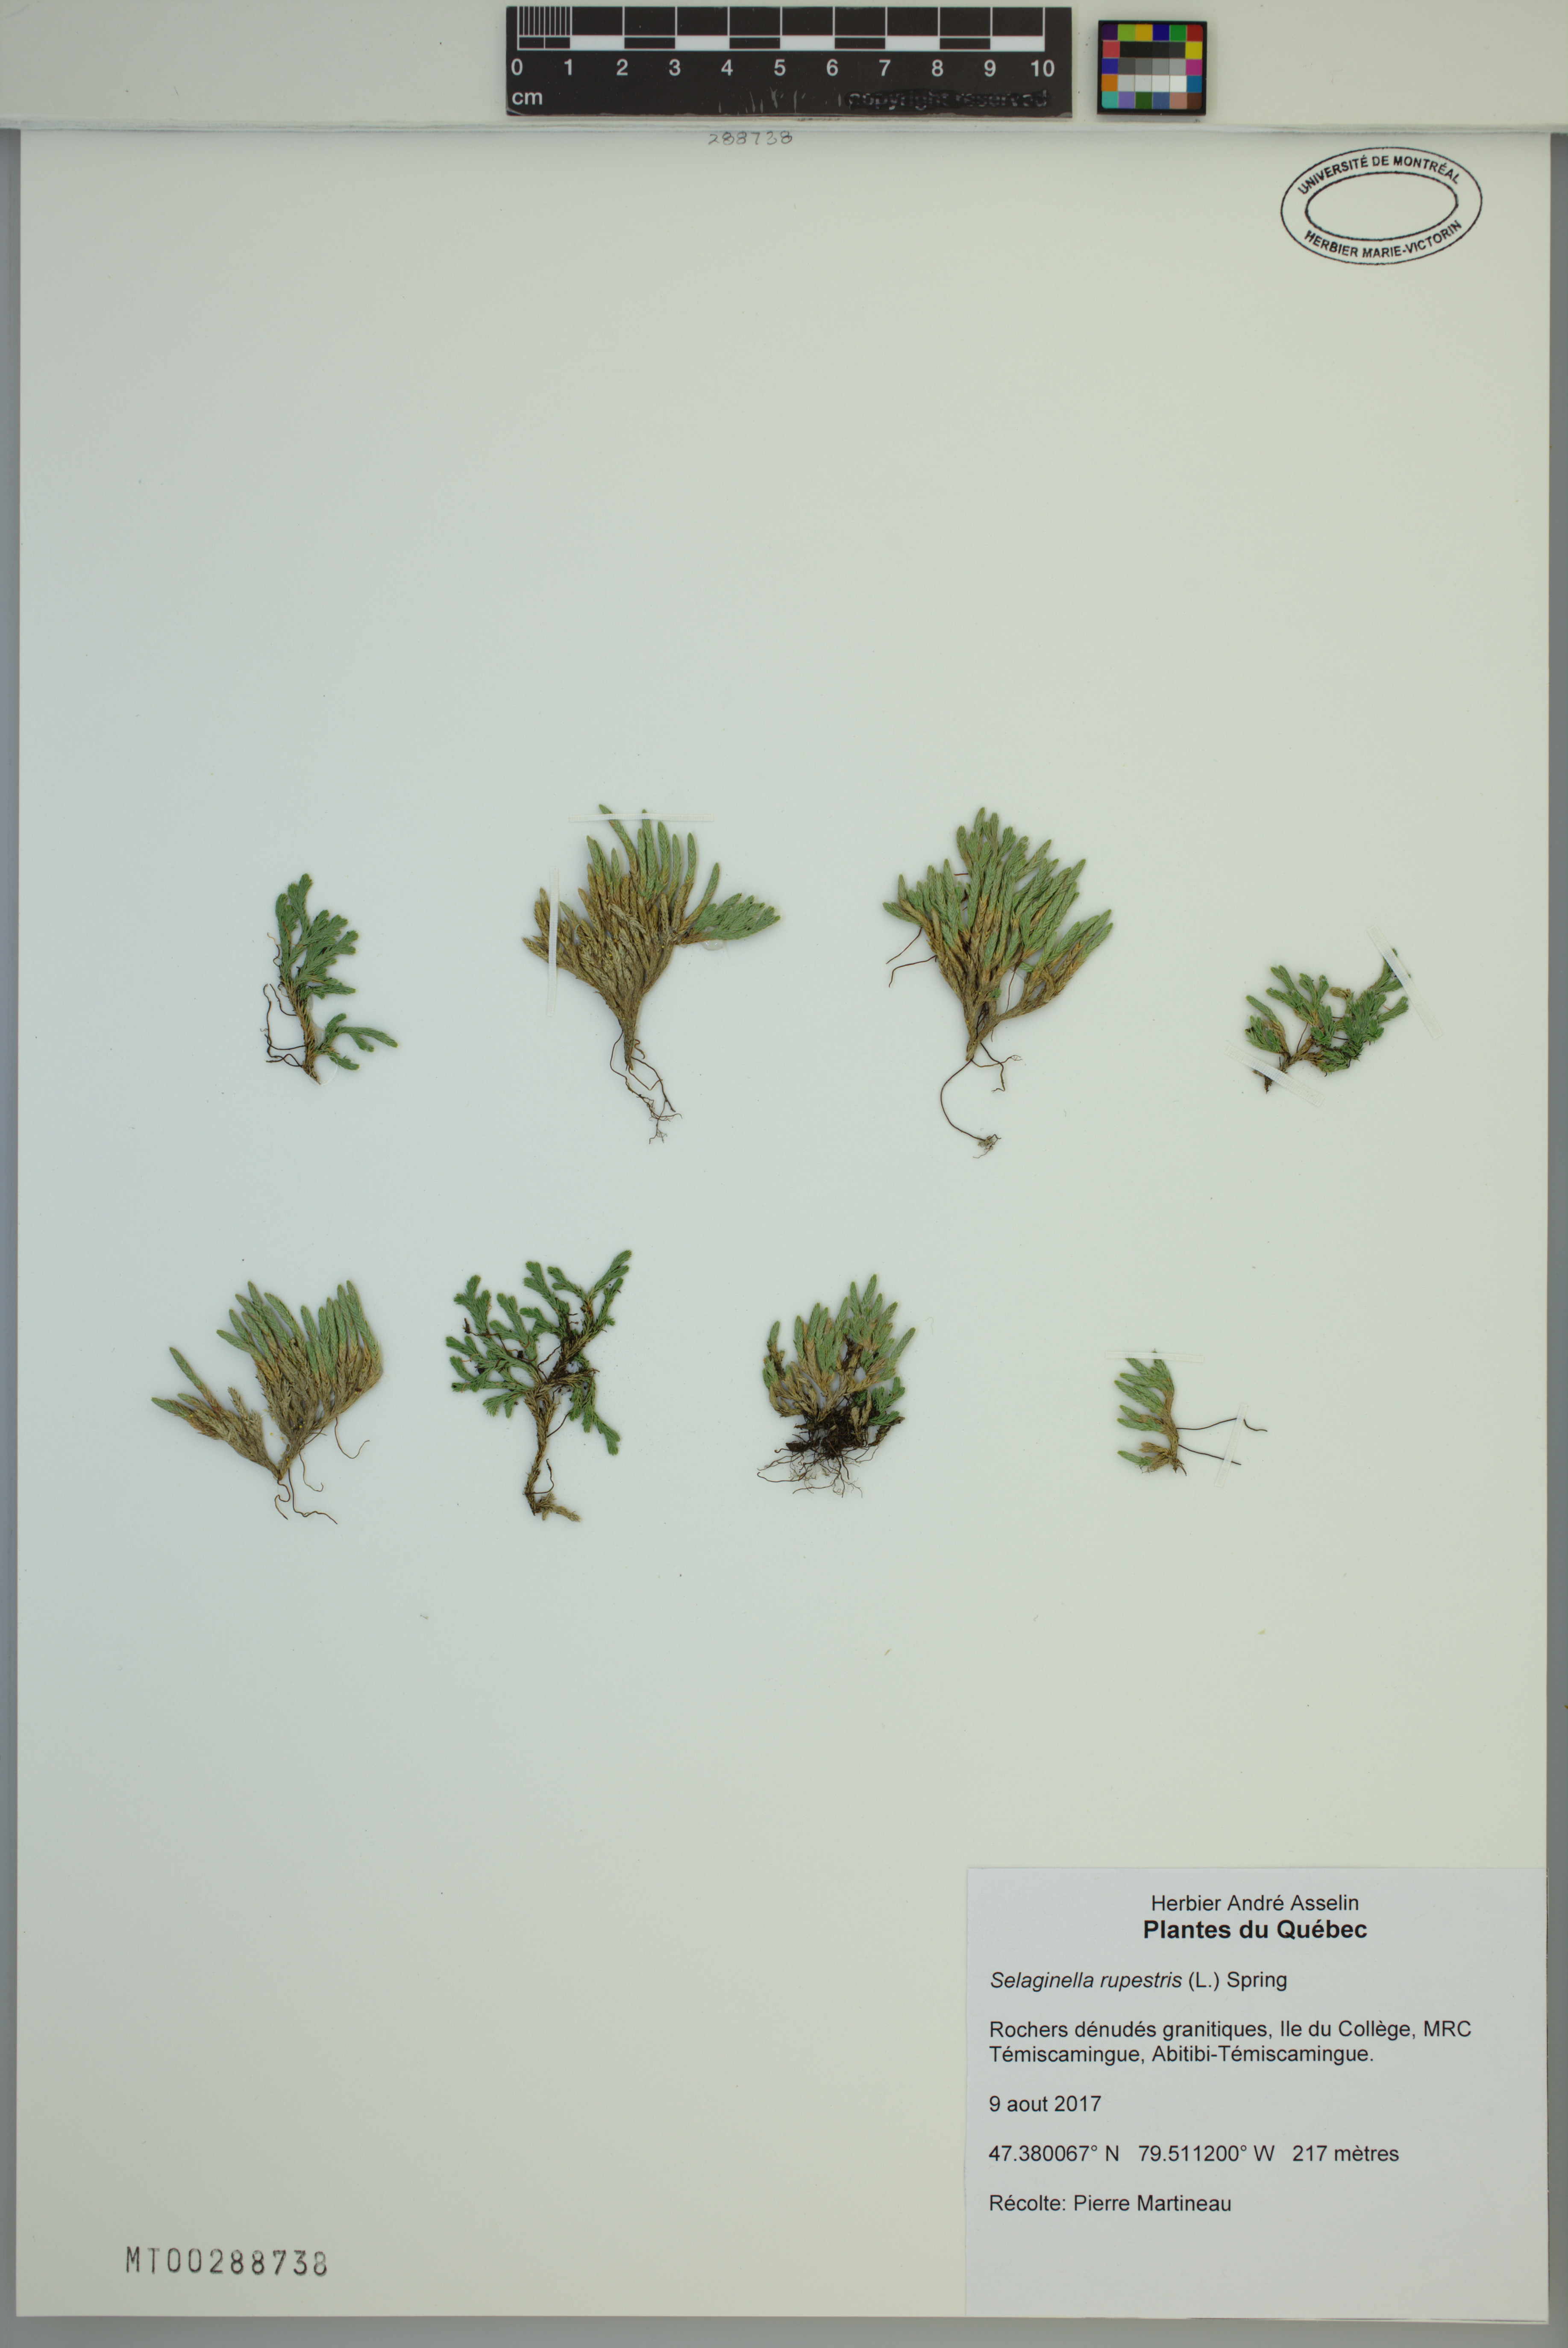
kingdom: Plantae
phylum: Tracheophyta
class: Lycopodiopsida
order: Selaginellales
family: Selaginellaceae
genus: Selaginella
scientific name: Selaginella rupestris
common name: Dwarf spikemoss
